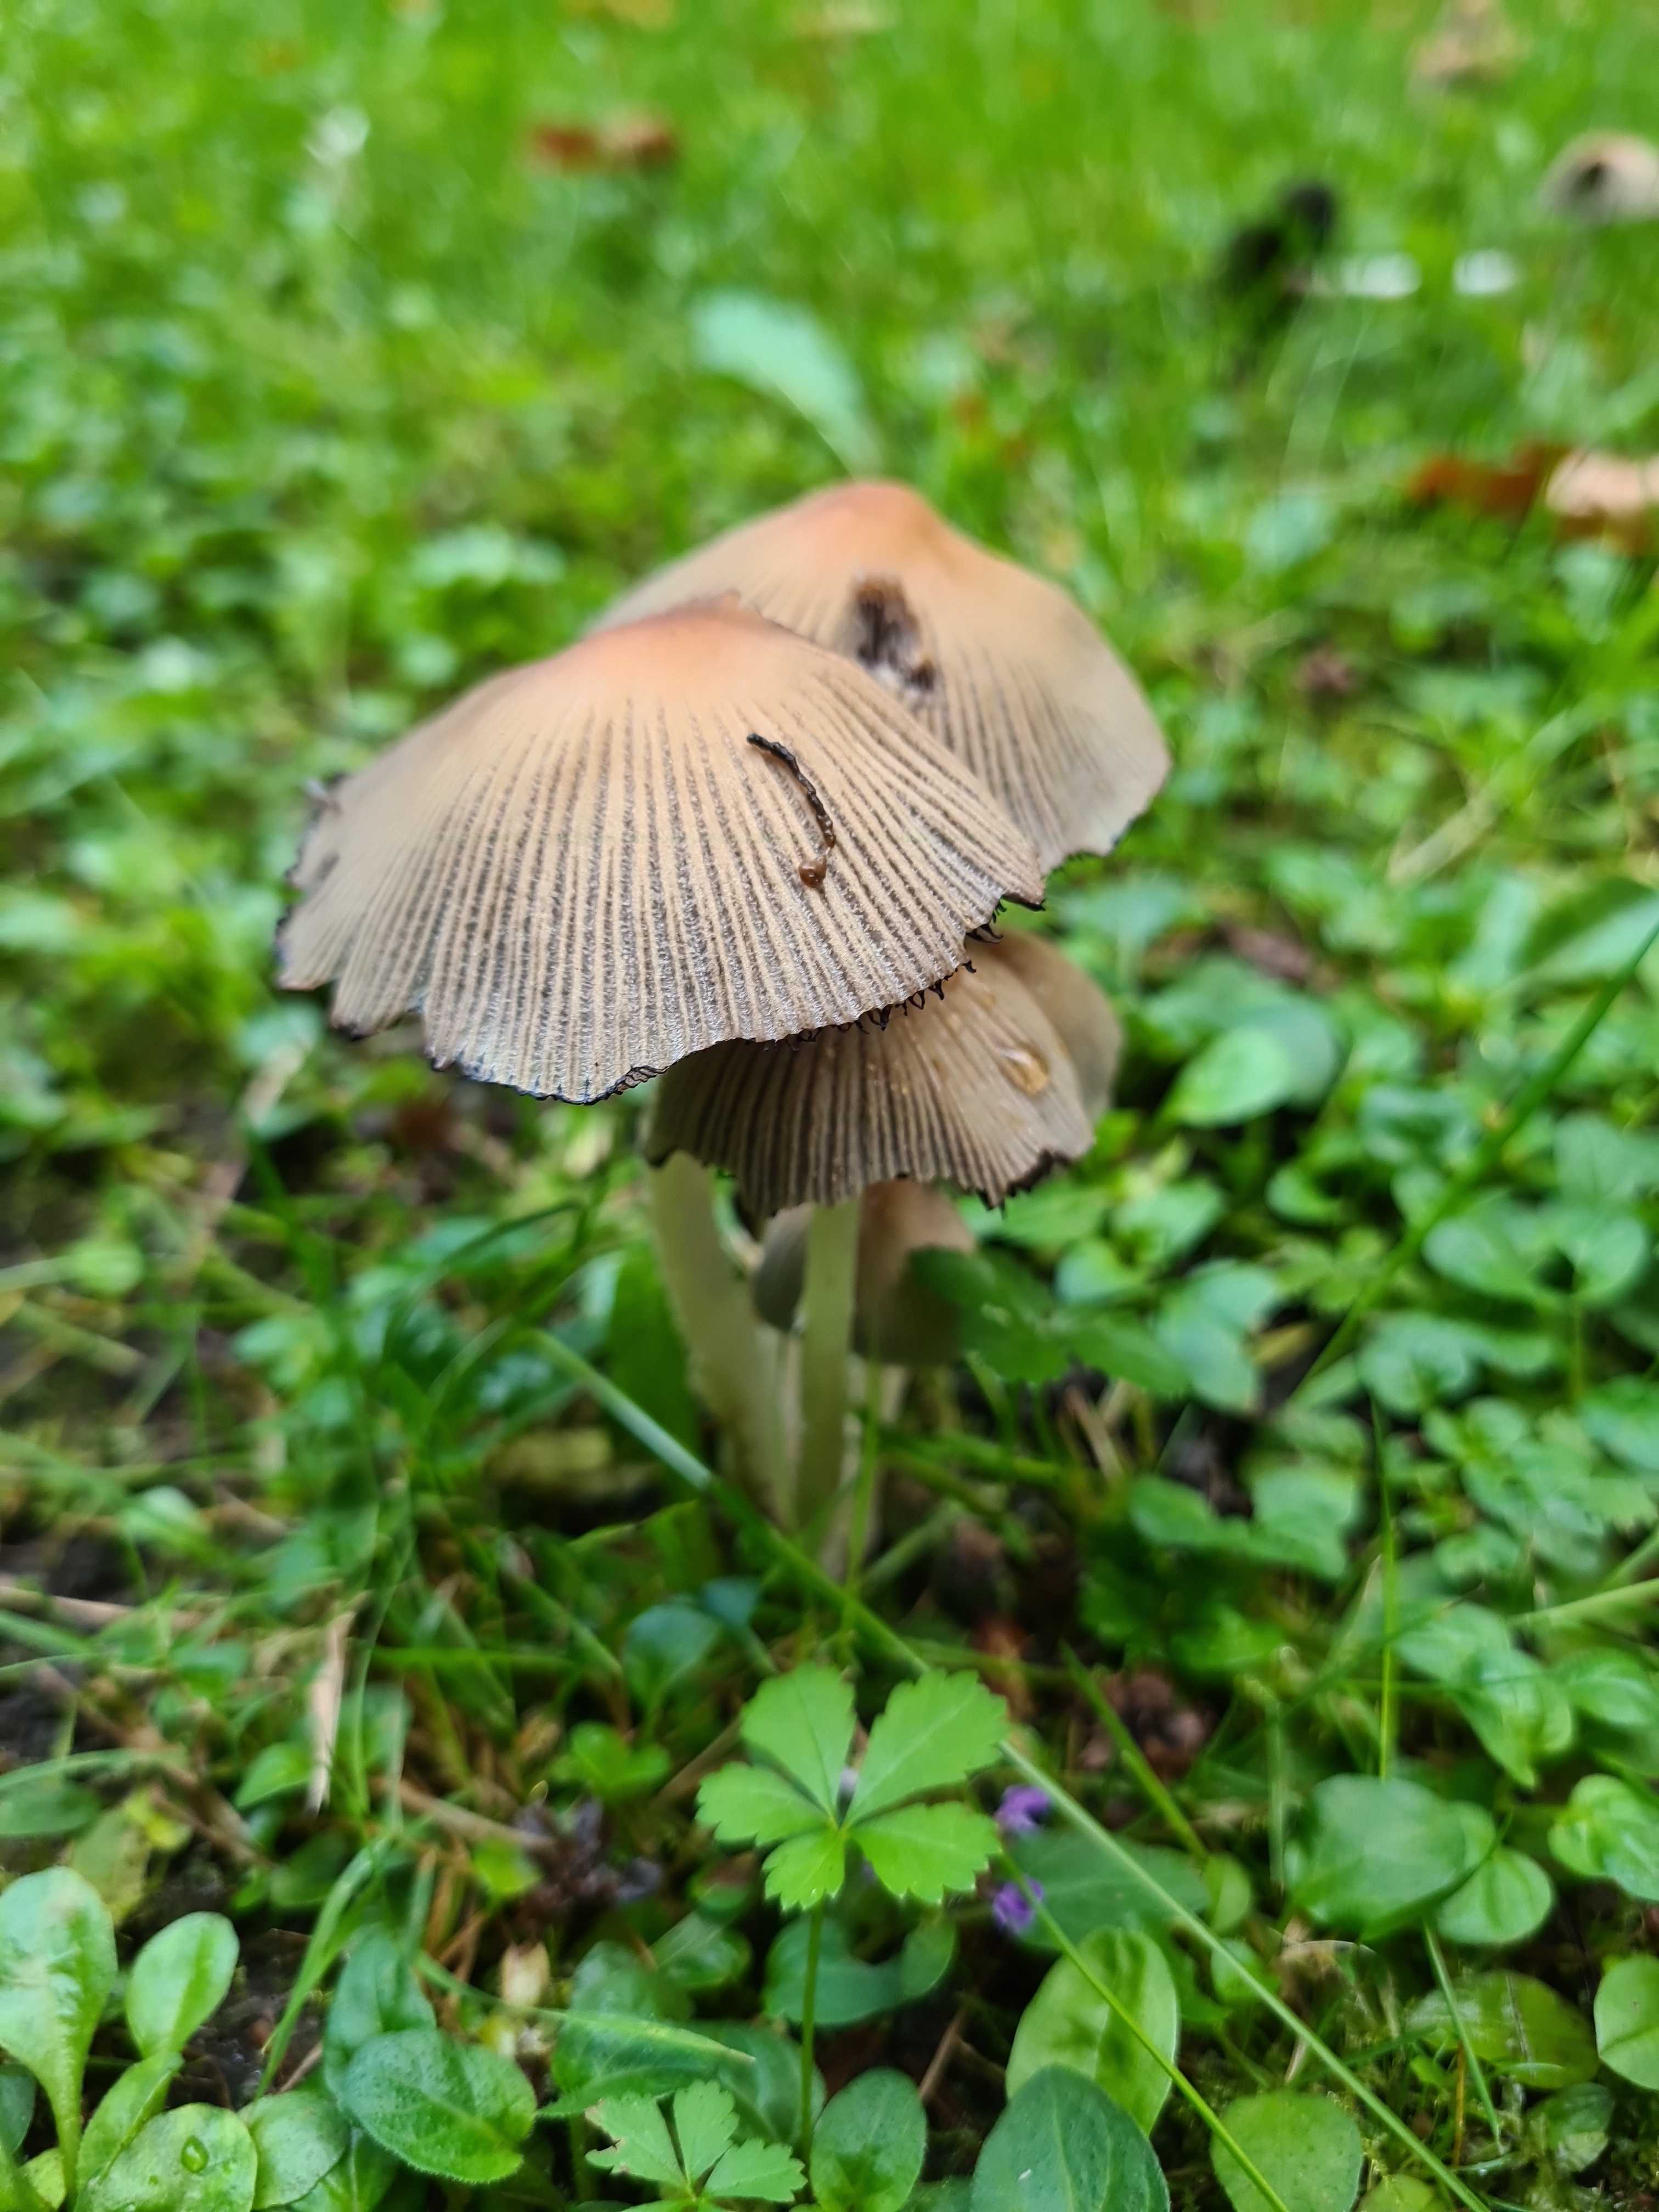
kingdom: Fungi
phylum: Basidiomycota
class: Agaricomycetes
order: Agaricales
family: Psathyrellaceae
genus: Coprinellus
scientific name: Coprinellus micaceus
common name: glimmer-blækhat
